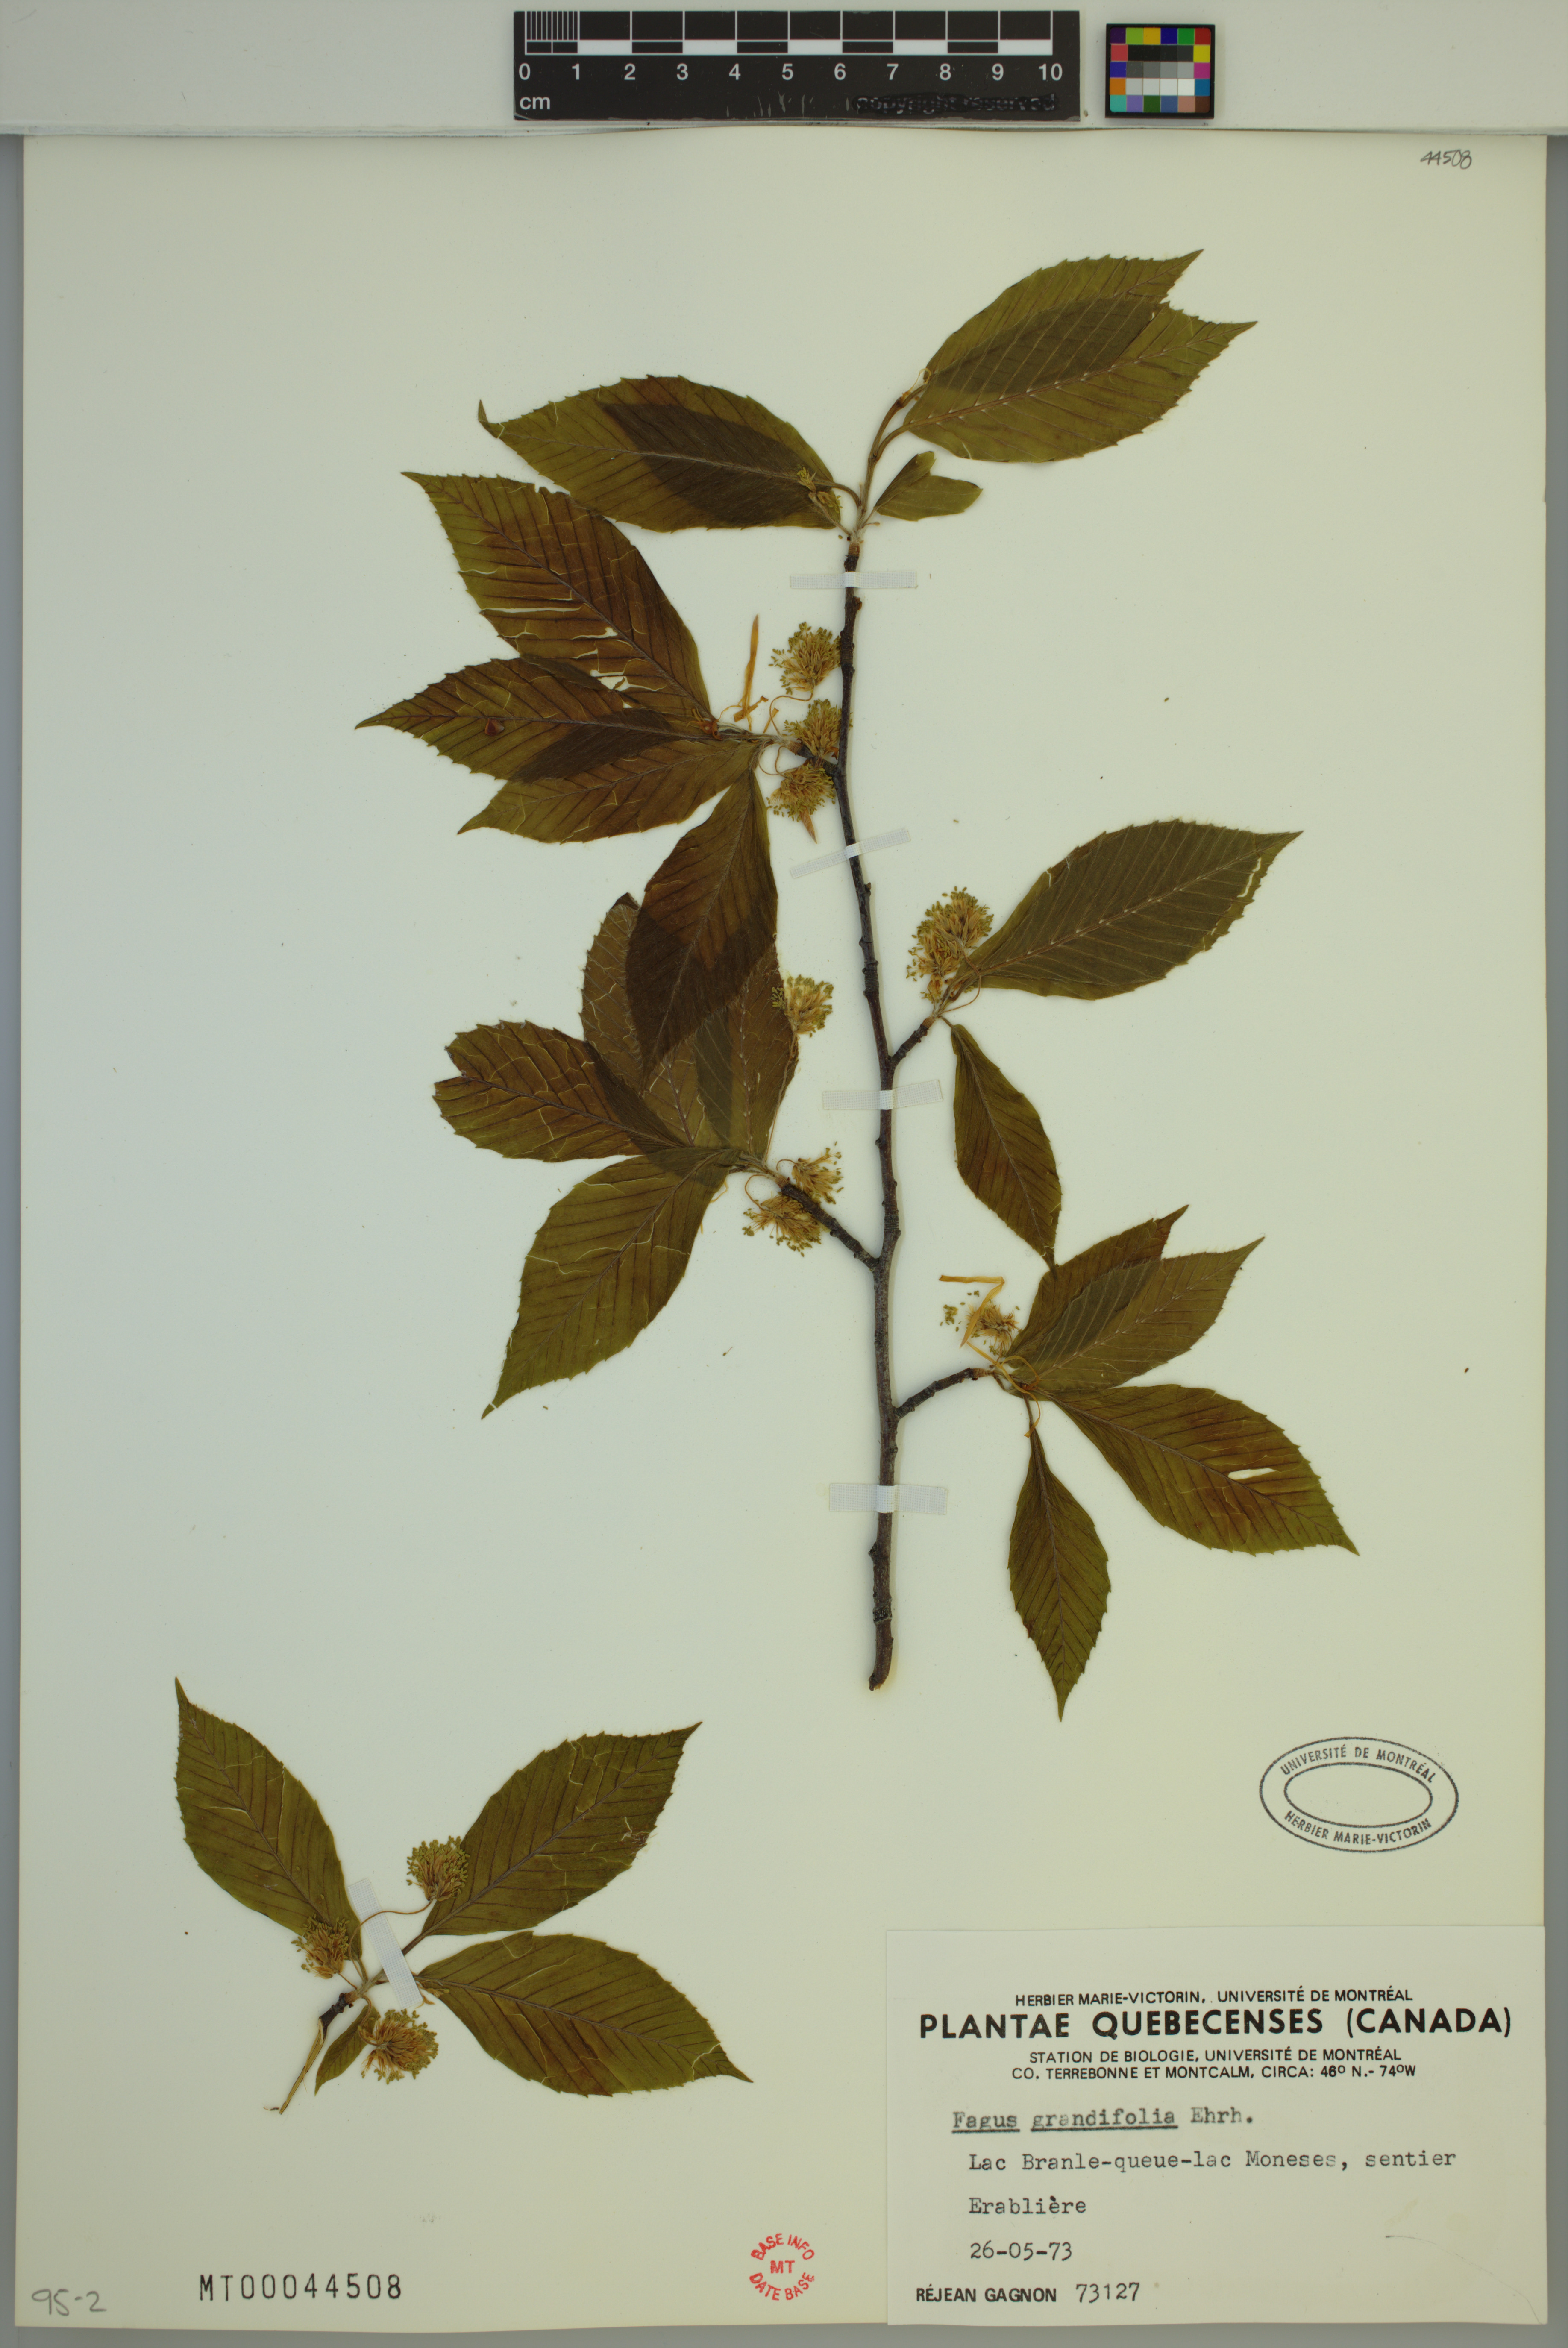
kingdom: Plantae
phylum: Tracheophyta
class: Magnoliopsida
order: Fagales
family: Fagaceae
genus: Fagus
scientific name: Fagus grandifolia
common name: American beech
